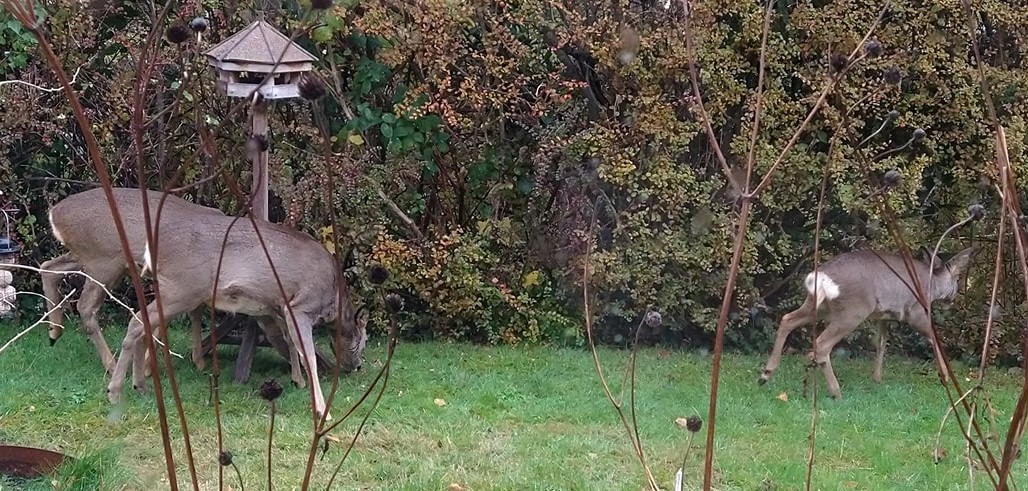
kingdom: Animalia
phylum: Chordata
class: Mammalia
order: Artiodactyla
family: Cervidae
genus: Capreolus
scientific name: Capreolus capreolus
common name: Rådyr
